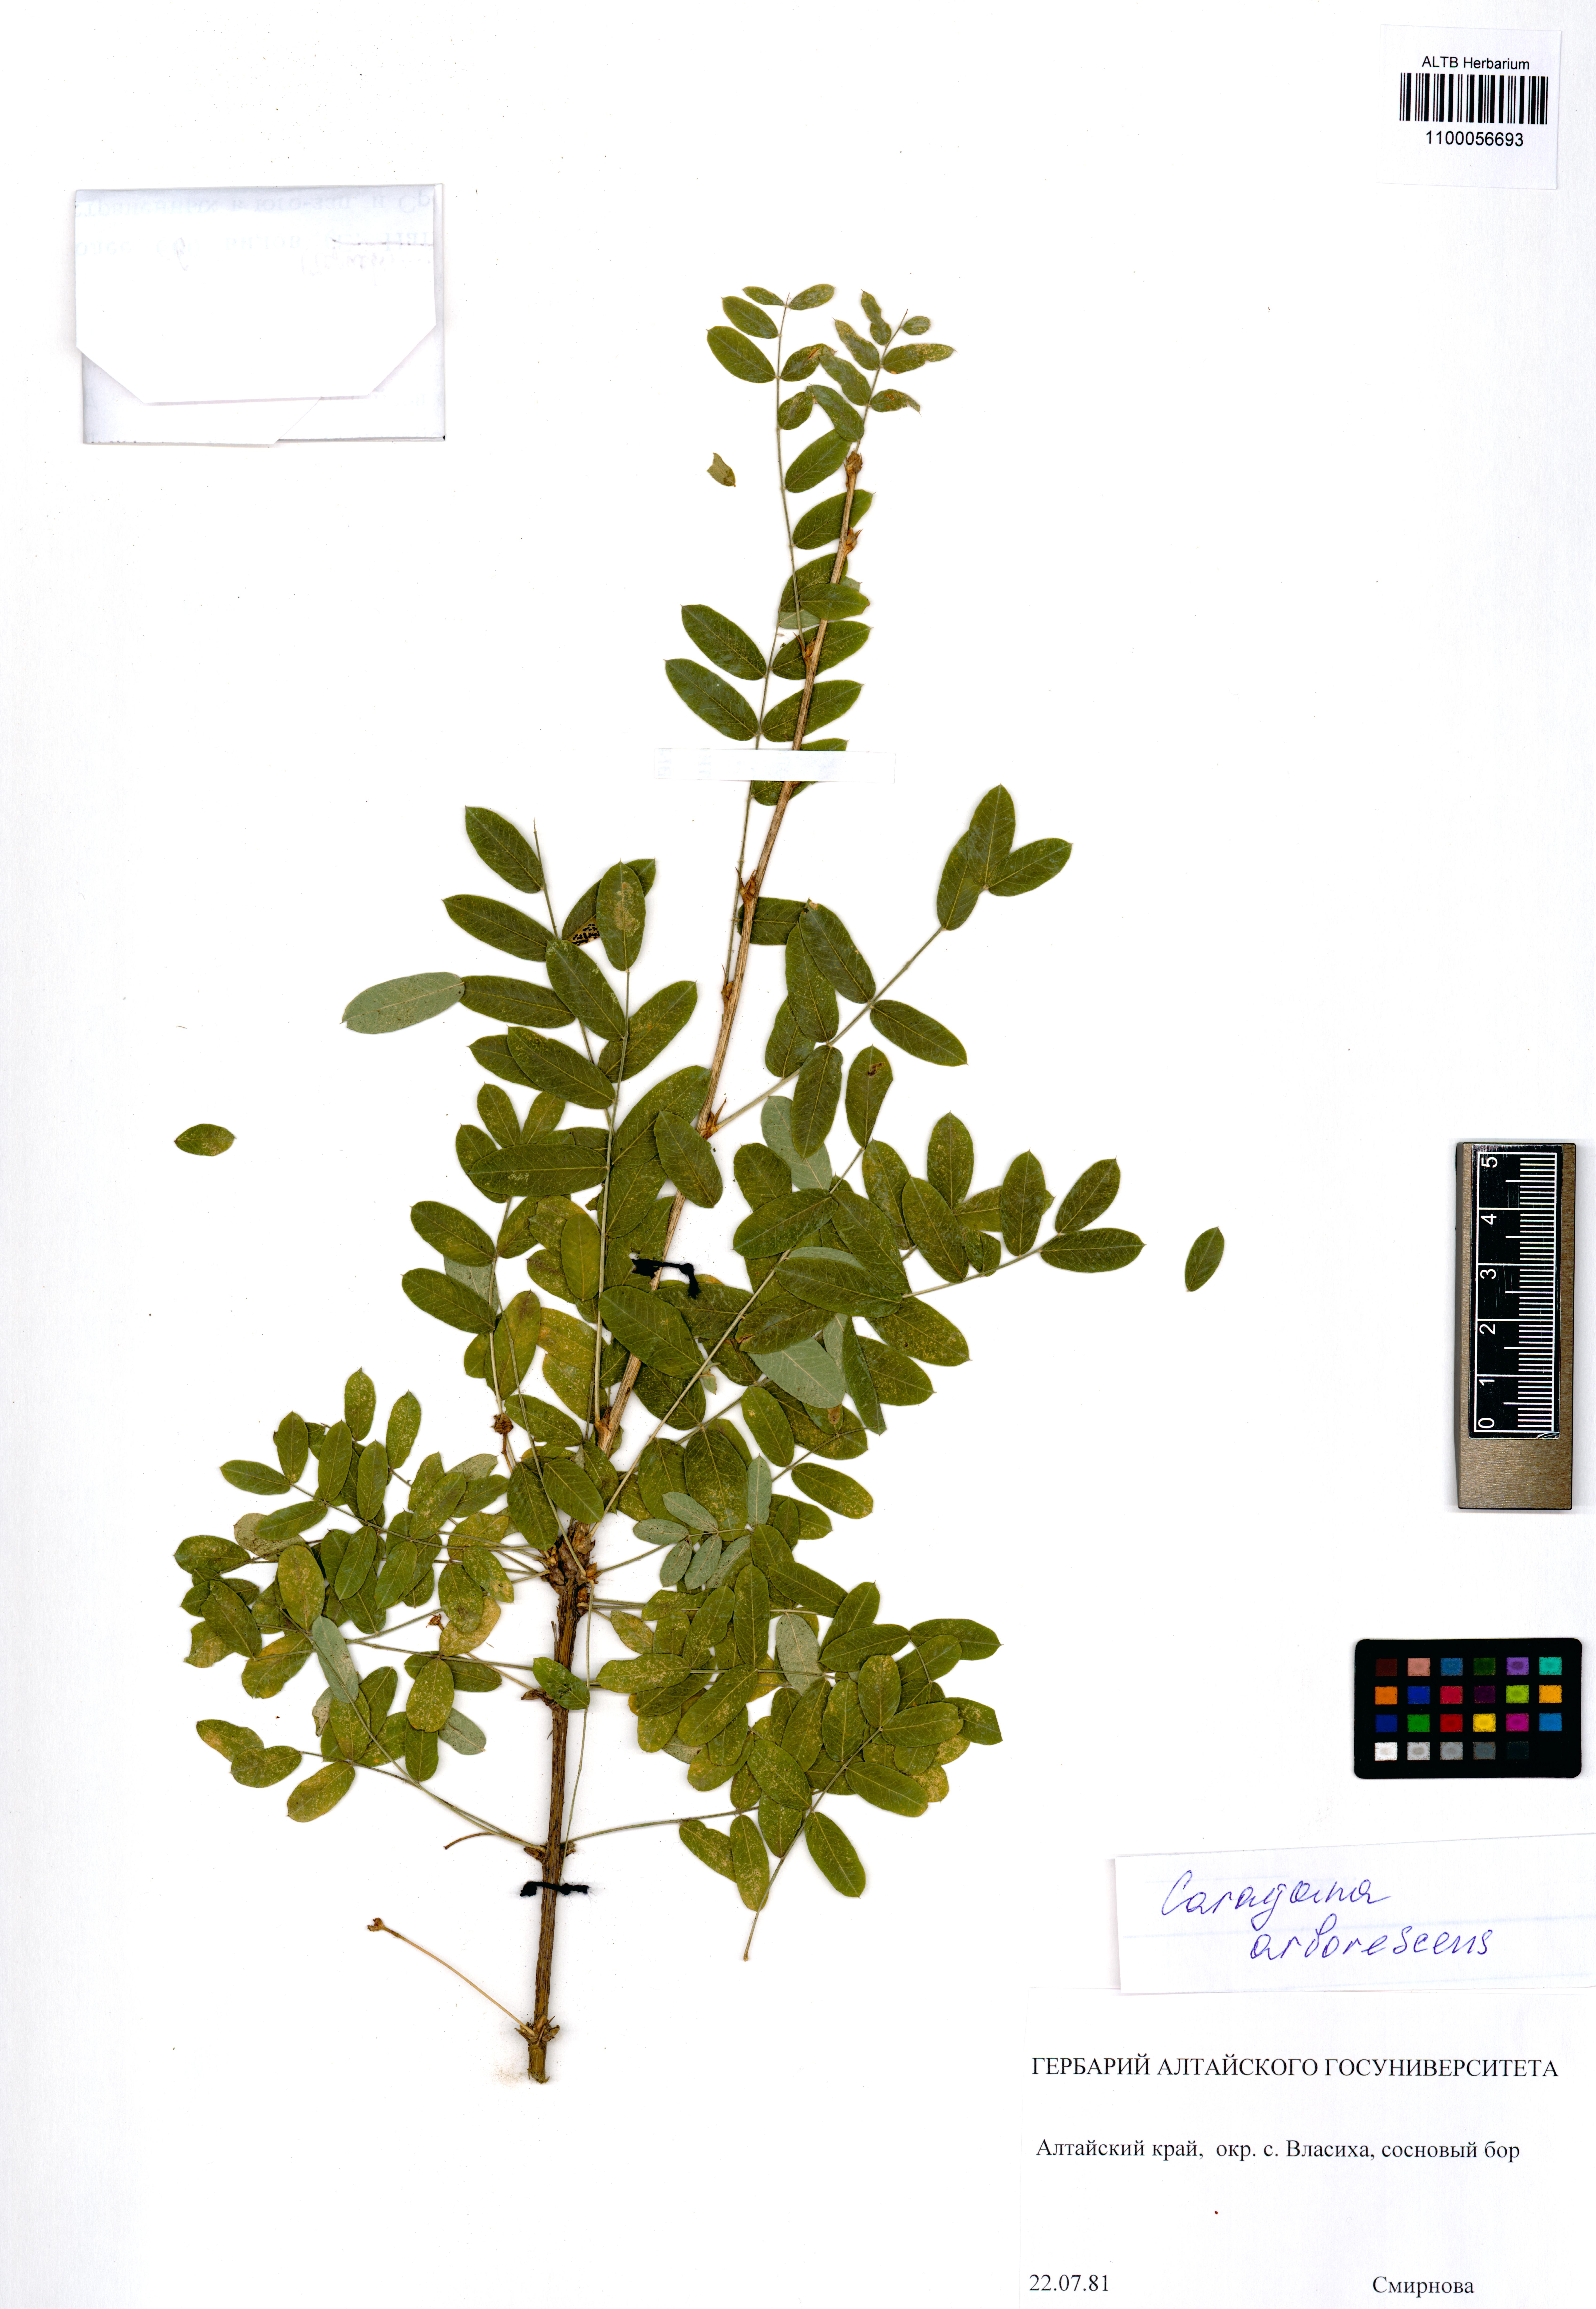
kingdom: Plantae
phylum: Tracheophyta
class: Magnoliopsida
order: Fabales
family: Fabaceae
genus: Caragana
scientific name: Caragana arborescens
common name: Siberian peashrub
